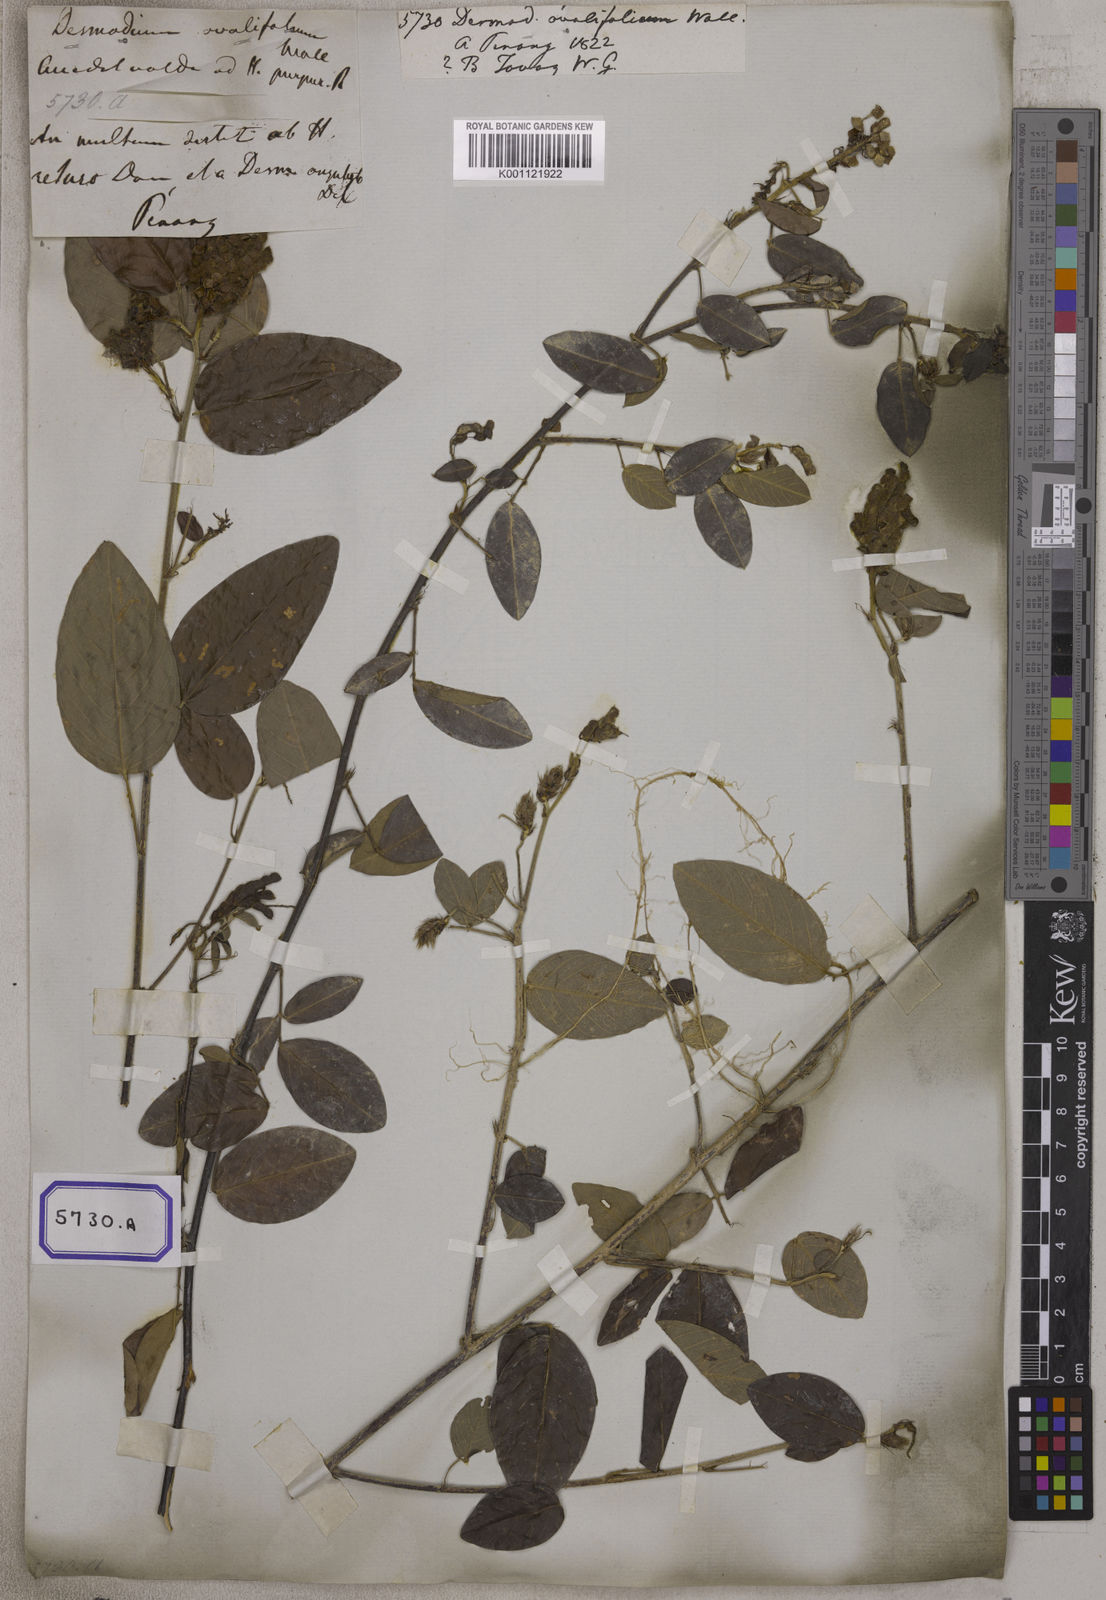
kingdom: Plantae
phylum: Tracheophyta
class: Magnoliopsida
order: Fabales
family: Fabaceae
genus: Desmodium
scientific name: Desmodium
